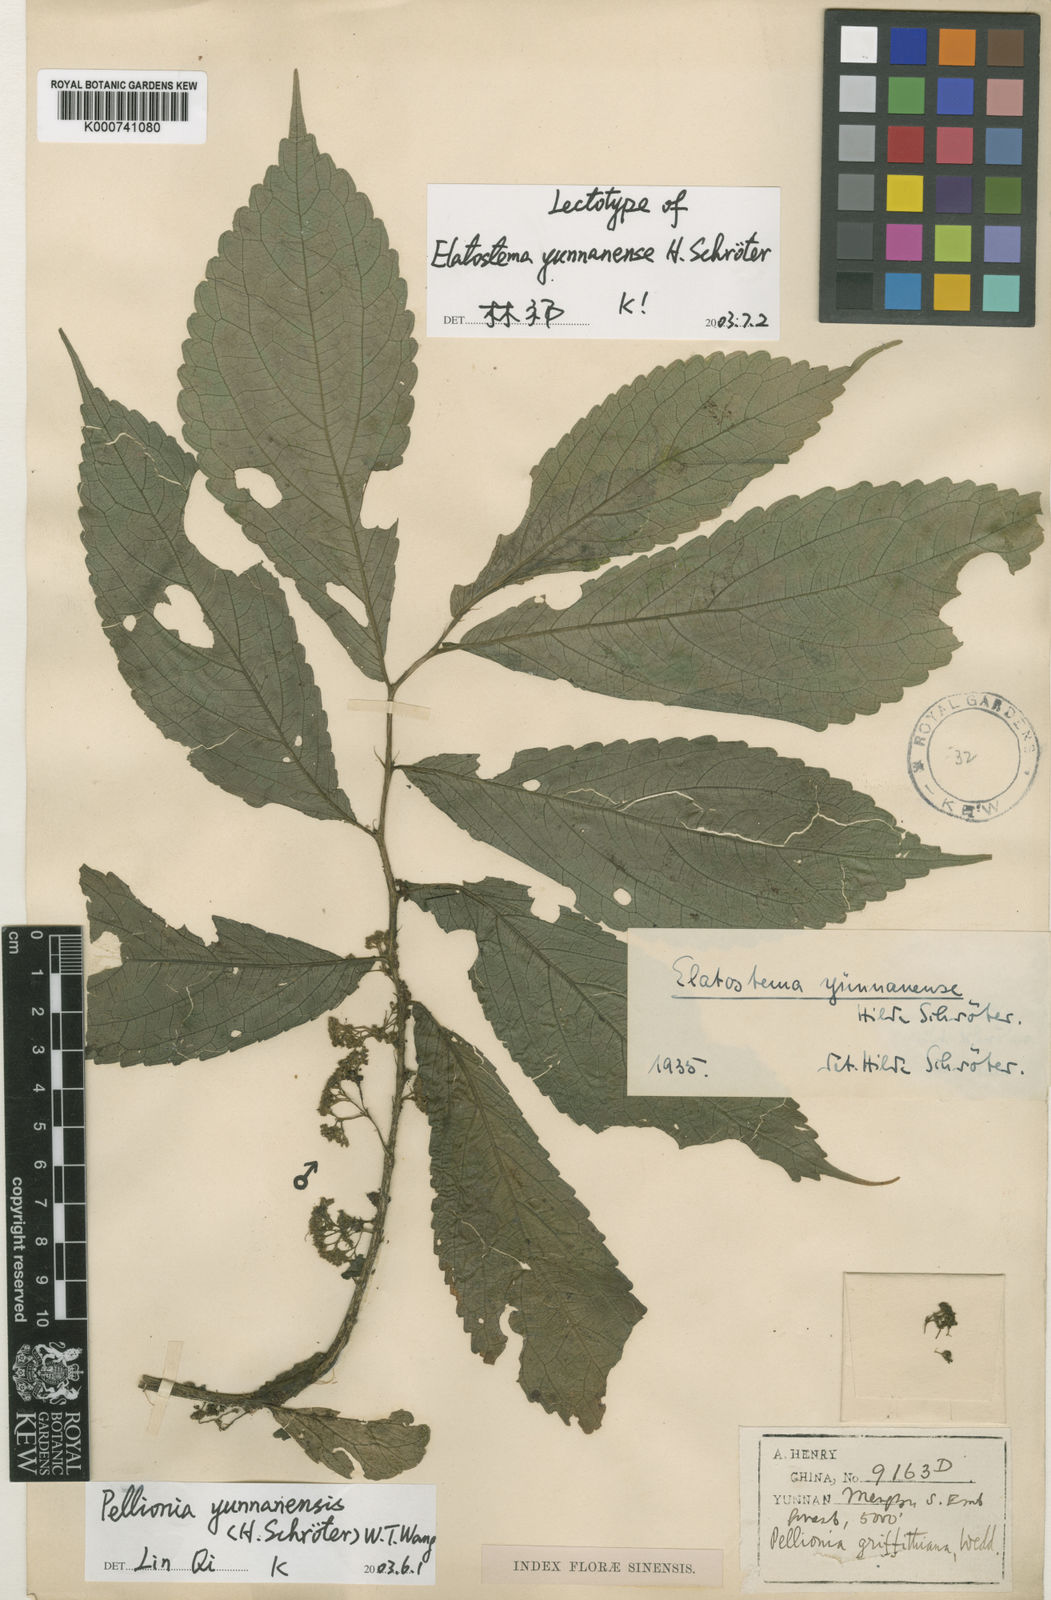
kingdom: Plantae
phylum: Tracheophyta
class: Magnoliopsida
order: Rosales
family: Urticaceae
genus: Pellionia
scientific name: Pellionia
